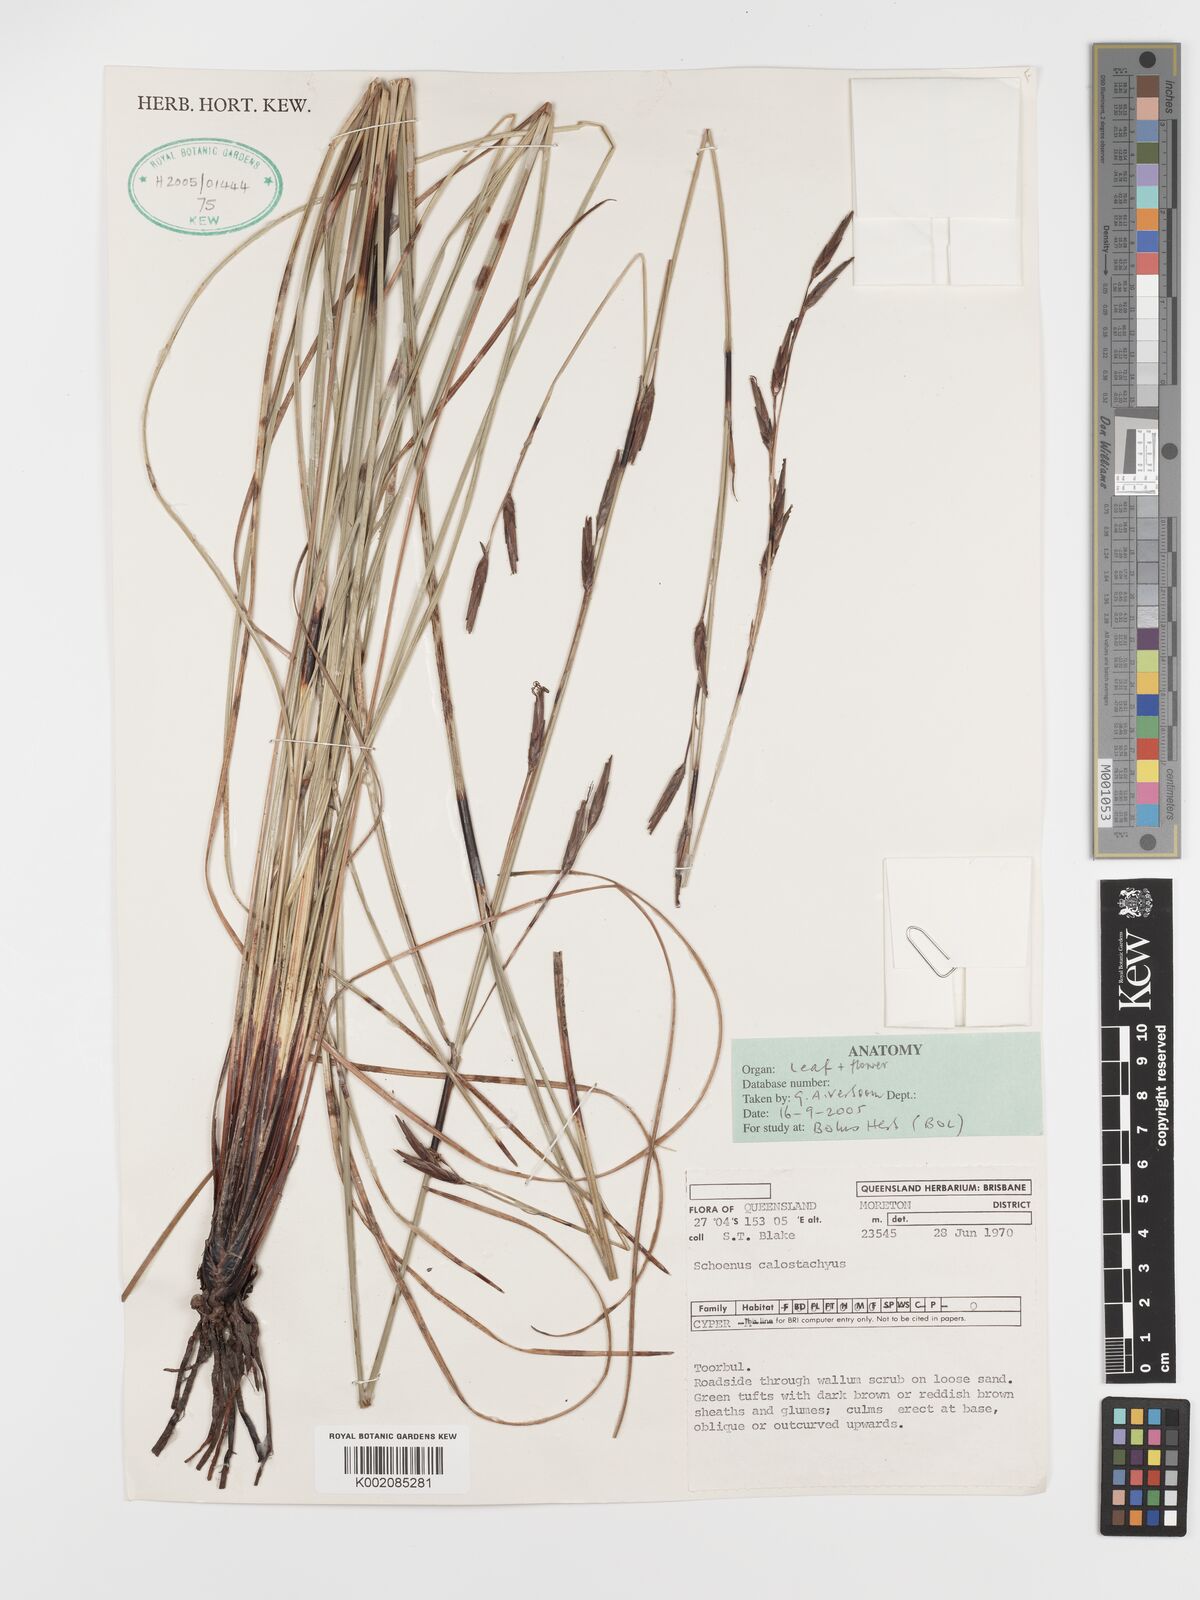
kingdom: Plantae
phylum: Tracheophyta
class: Liliopsida
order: Poales
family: Cyperaceae
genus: Schoenus
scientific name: Schoenus calostachyus
